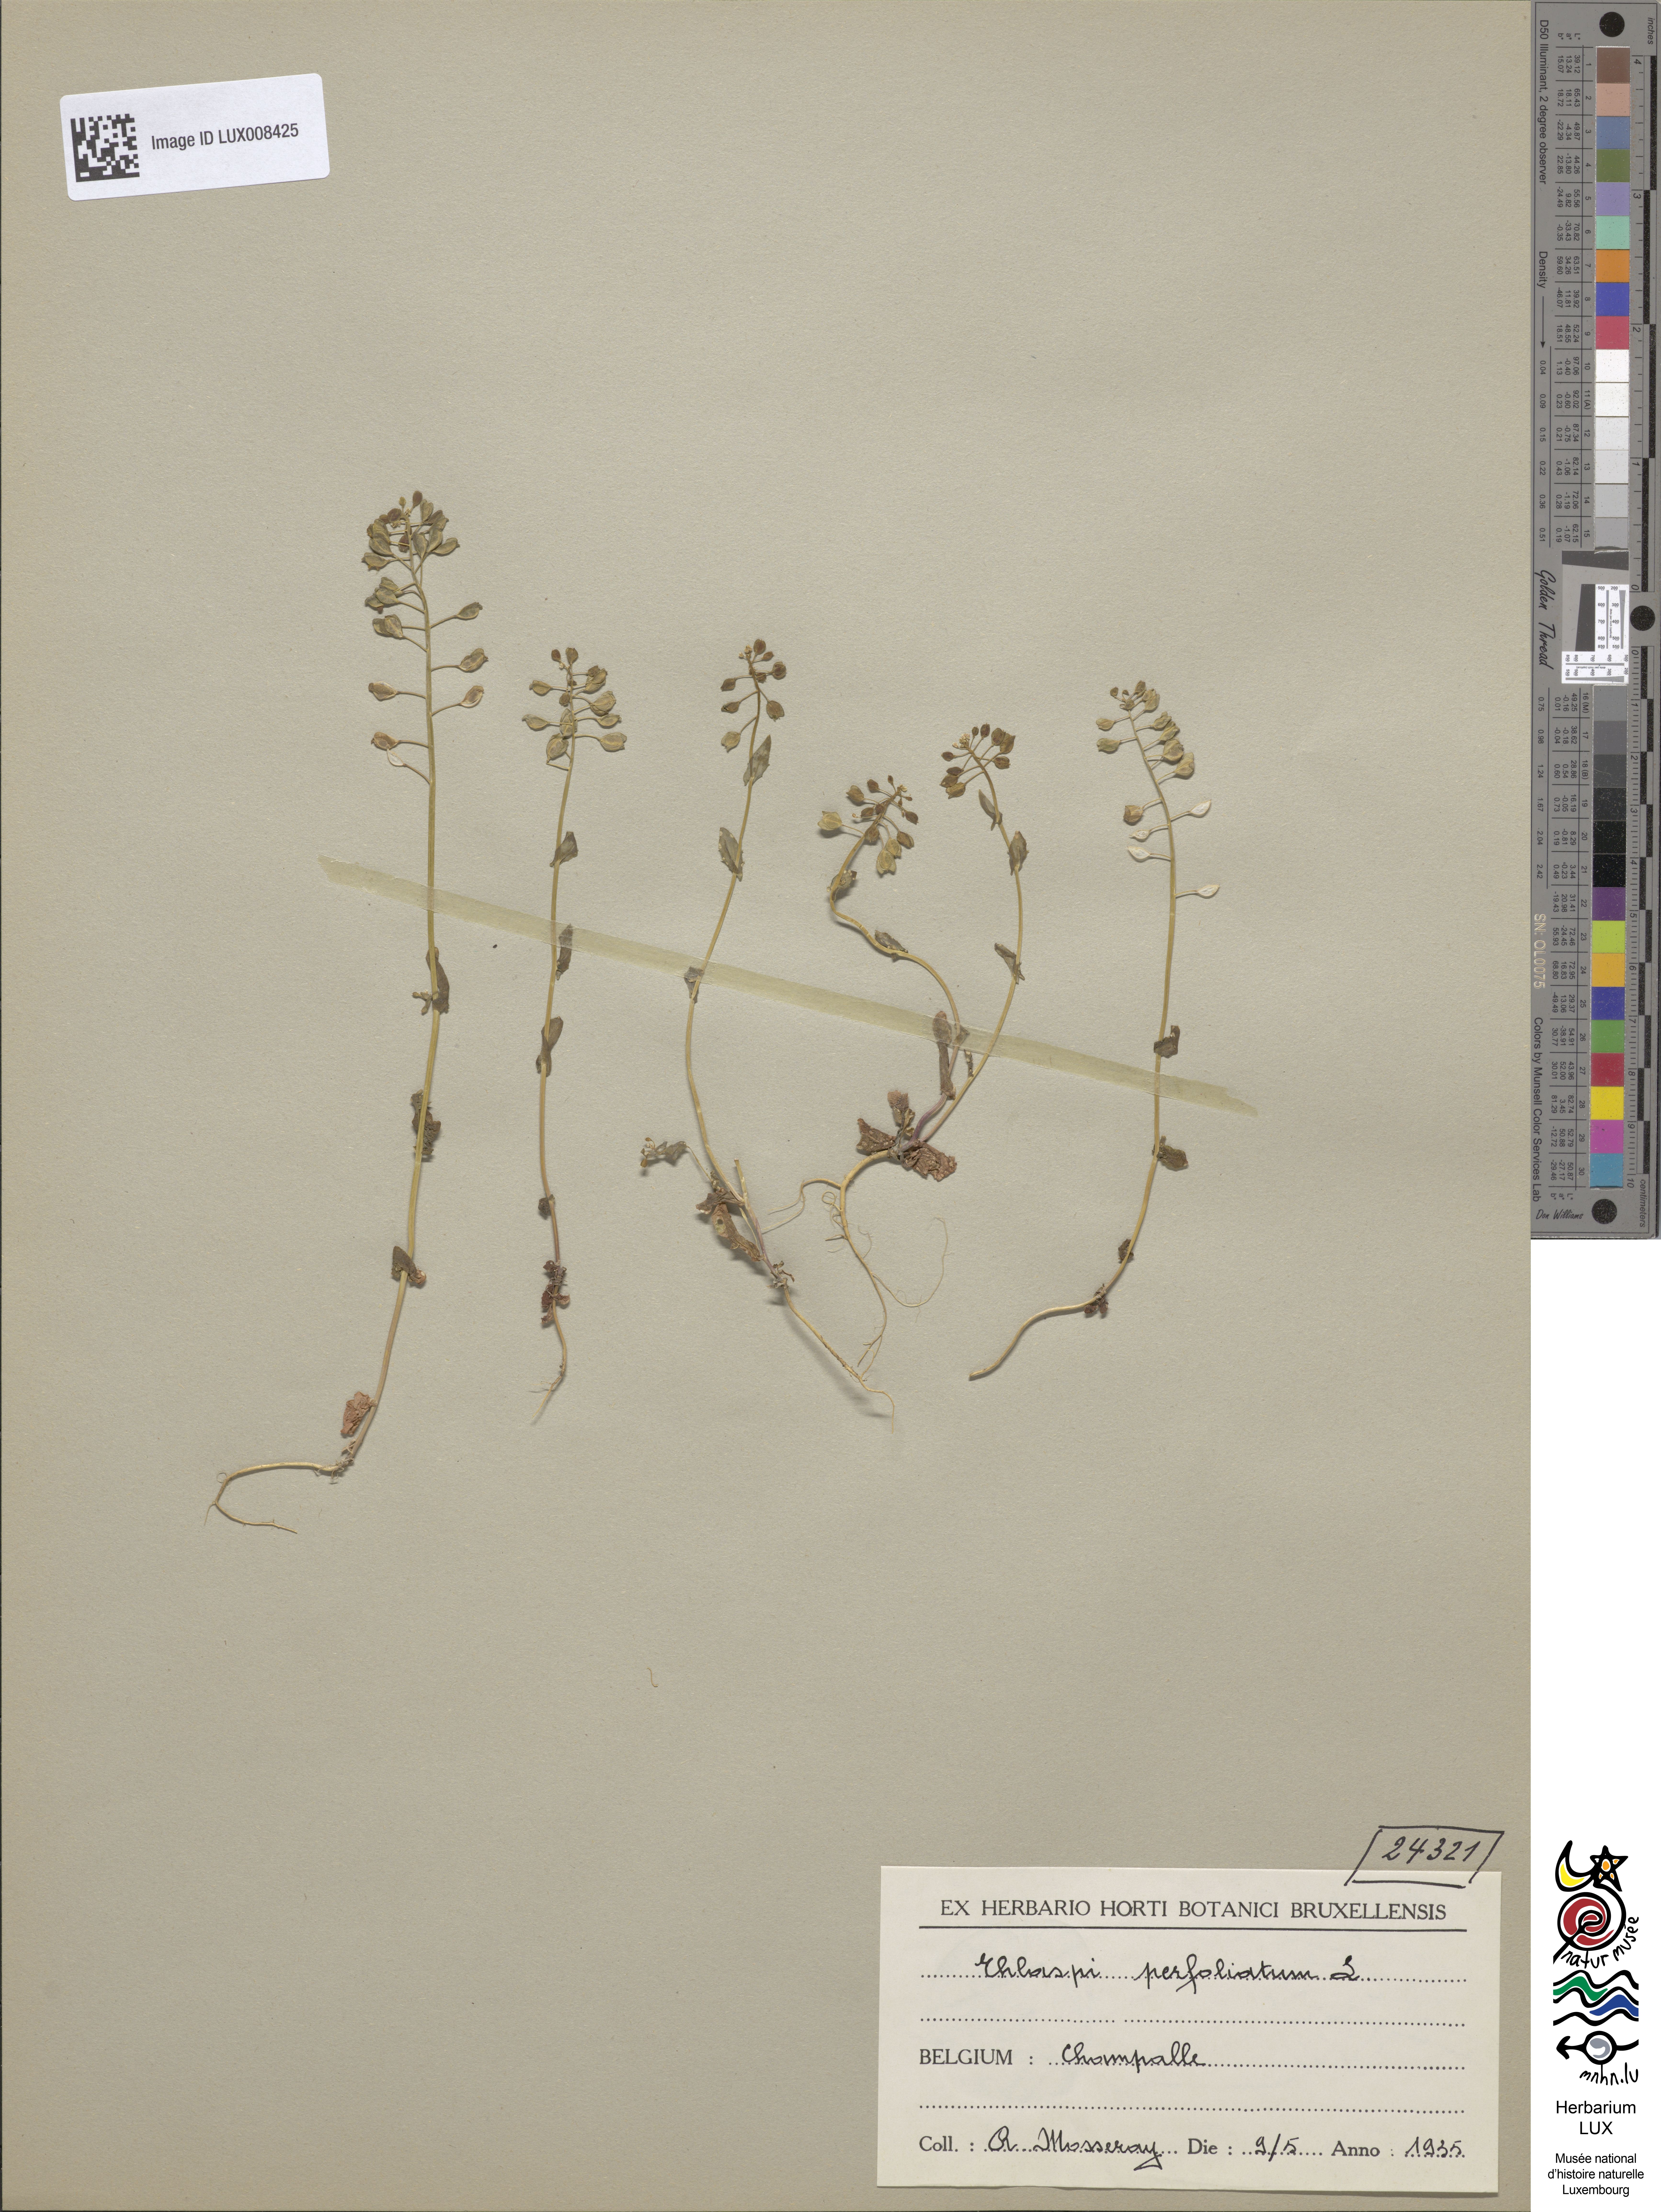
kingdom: Plantae
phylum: Tracheophyta
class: Magnoliopsida
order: Brassicales
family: Brassicaceae
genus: Noccaea
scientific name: Noccaea perfoliata
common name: Perfoliate pennycress
